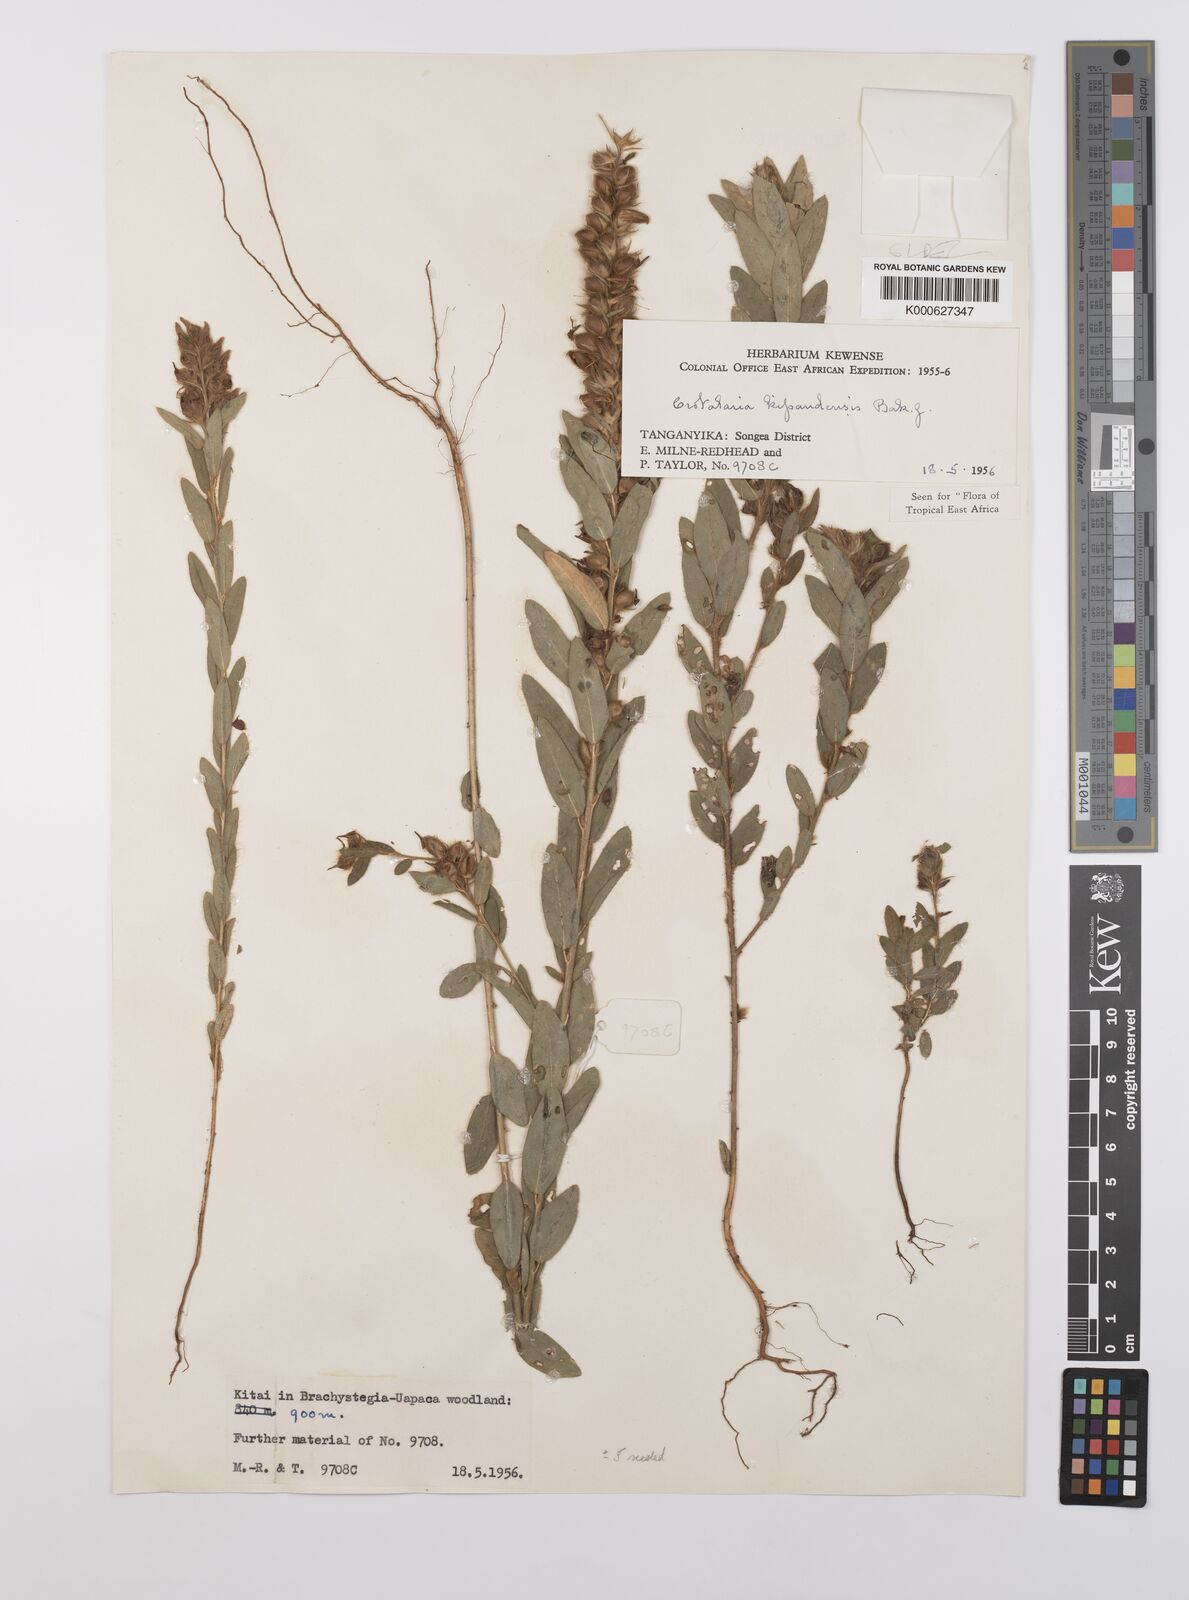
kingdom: Plantae
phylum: Tracheophyta
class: Magnoliopsida
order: Fabales
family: Fabaceae
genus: Crotalaria
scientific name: Crotalaria kipandensis
